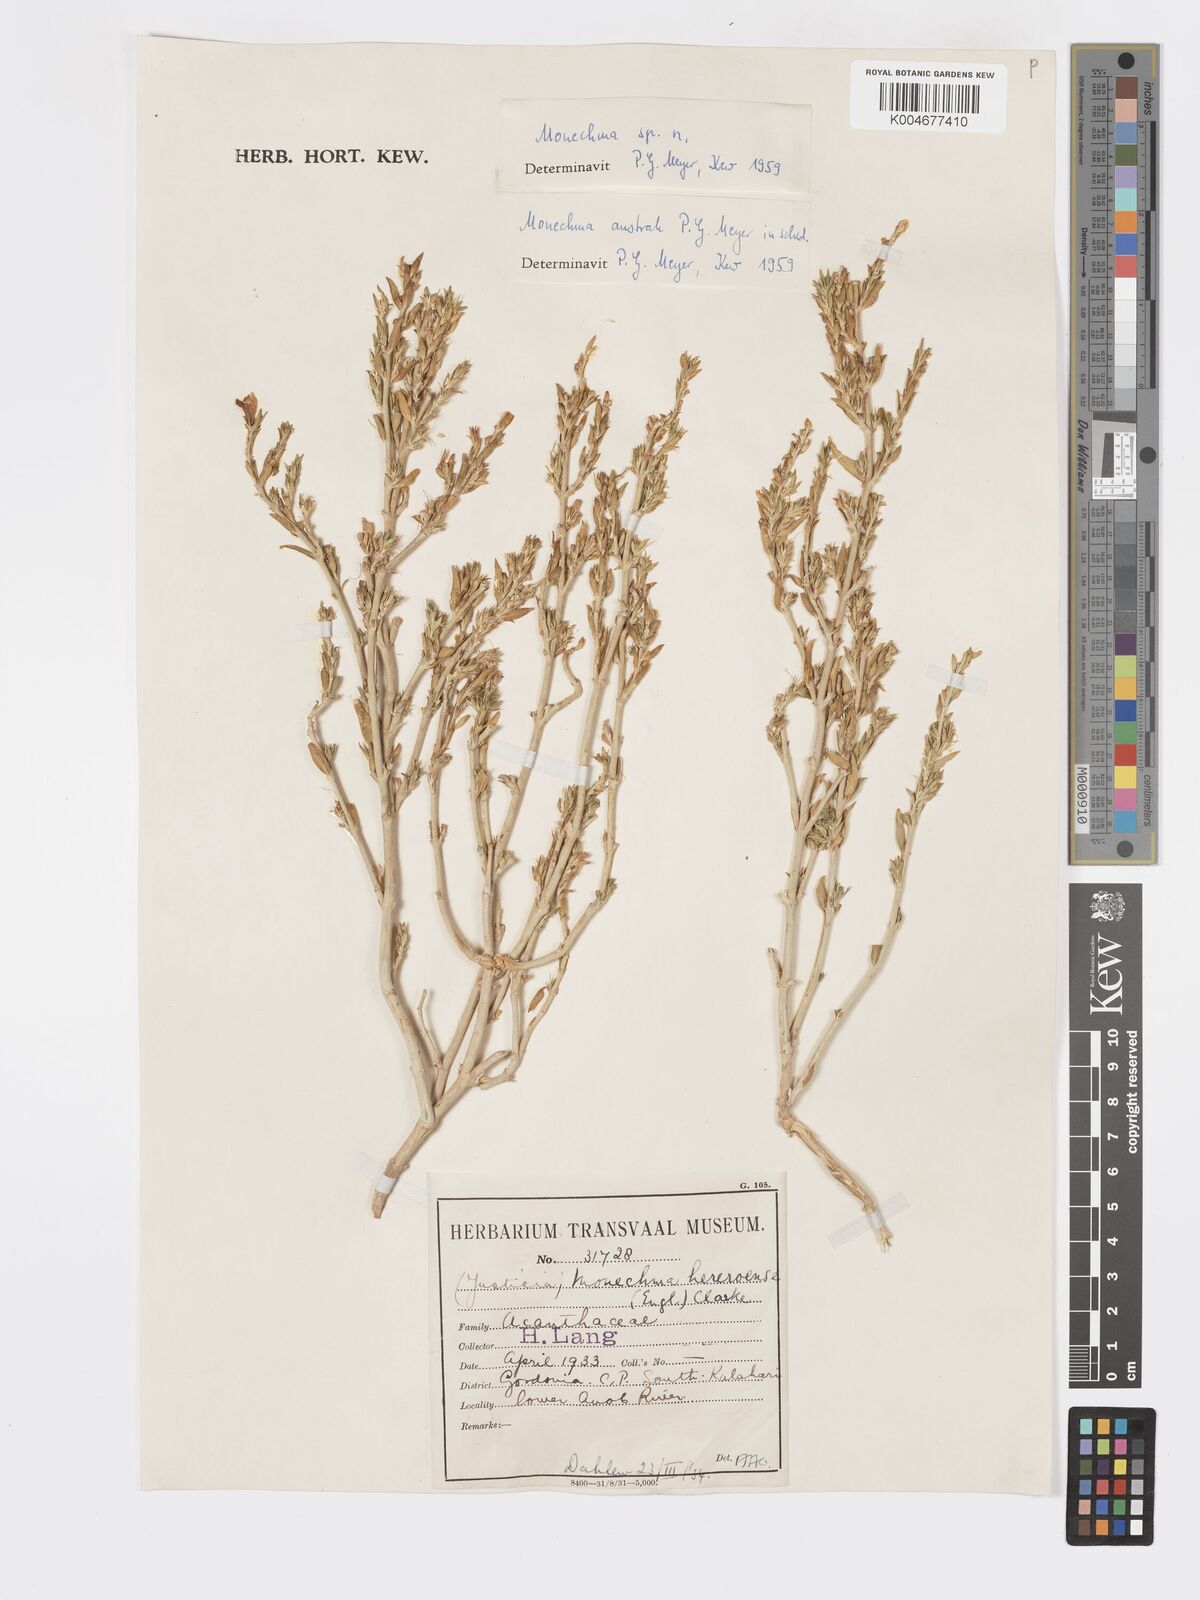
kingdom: Plantae
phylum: Tracheophyta
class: Magnoliopsida
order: Lamiales
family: Acanthaceae
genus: Pogonospermum
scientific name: Pogonospermum
